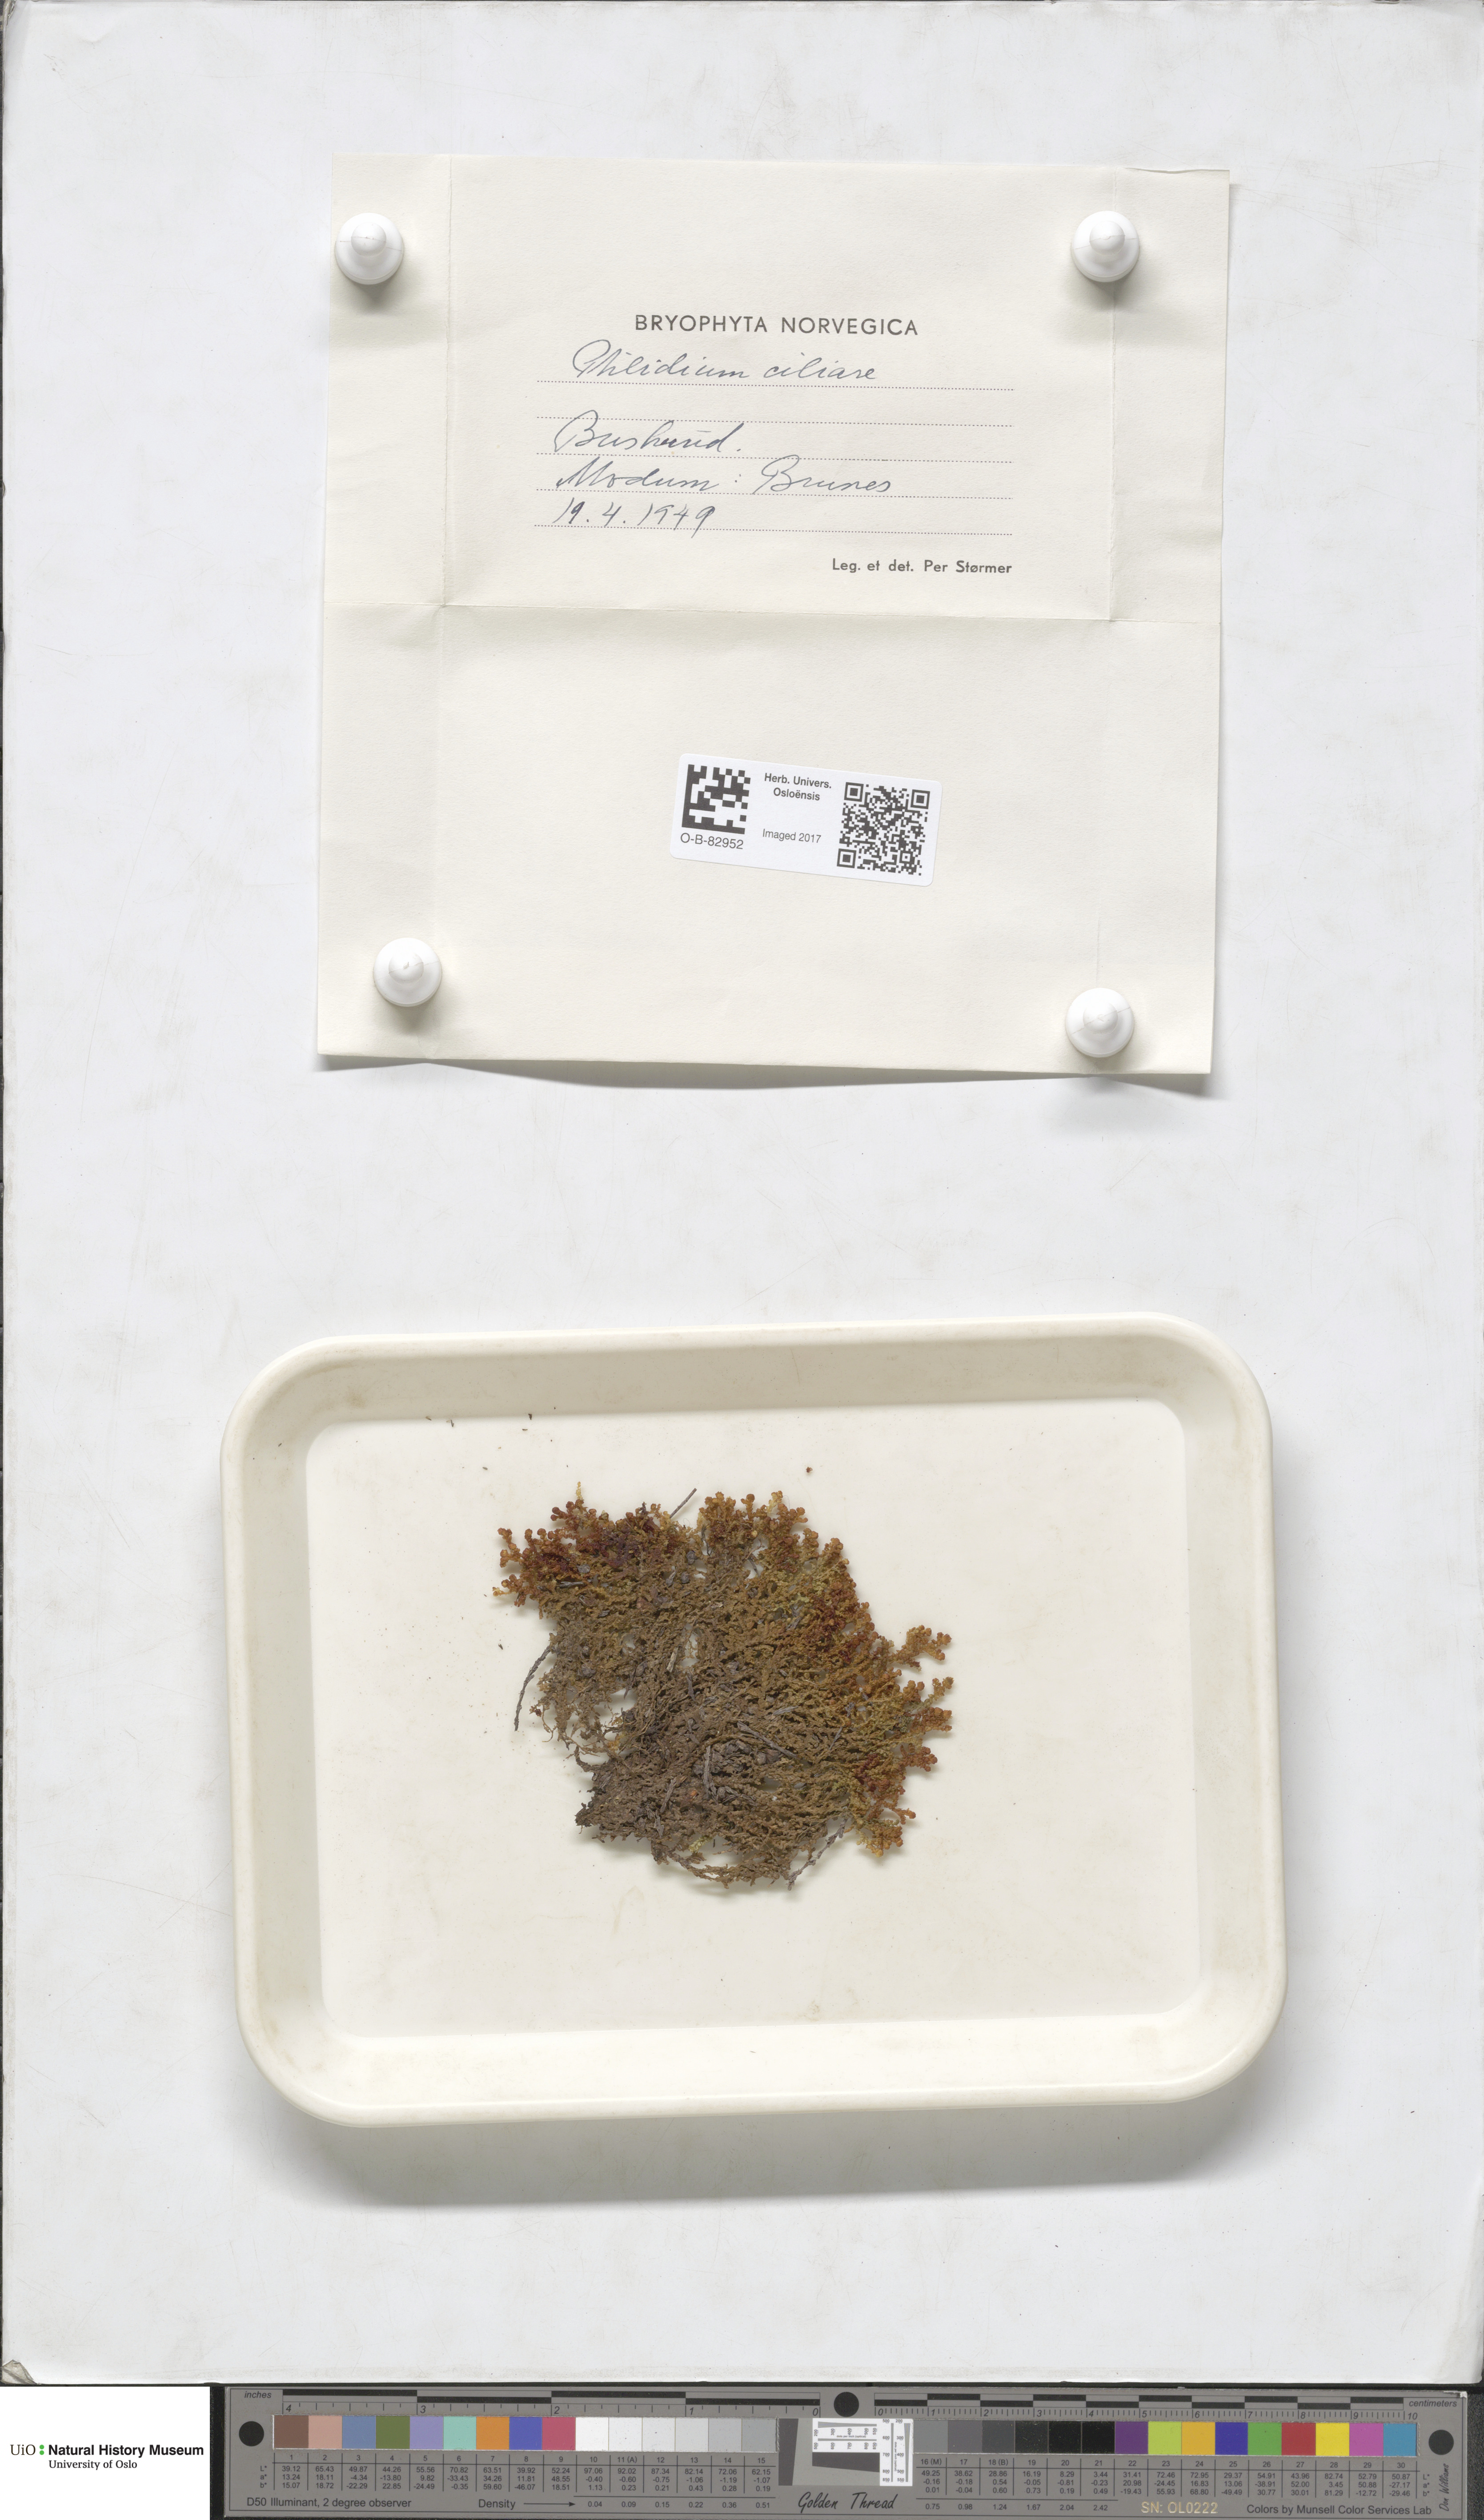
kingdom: Plantae
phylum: Marchantiophyta
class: Jungermanniopsida
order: Ptilidiales
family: Ptilidiaceae
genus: Ptilidium
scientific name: Ptilidium ciliare
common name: Ciliate fringewort
